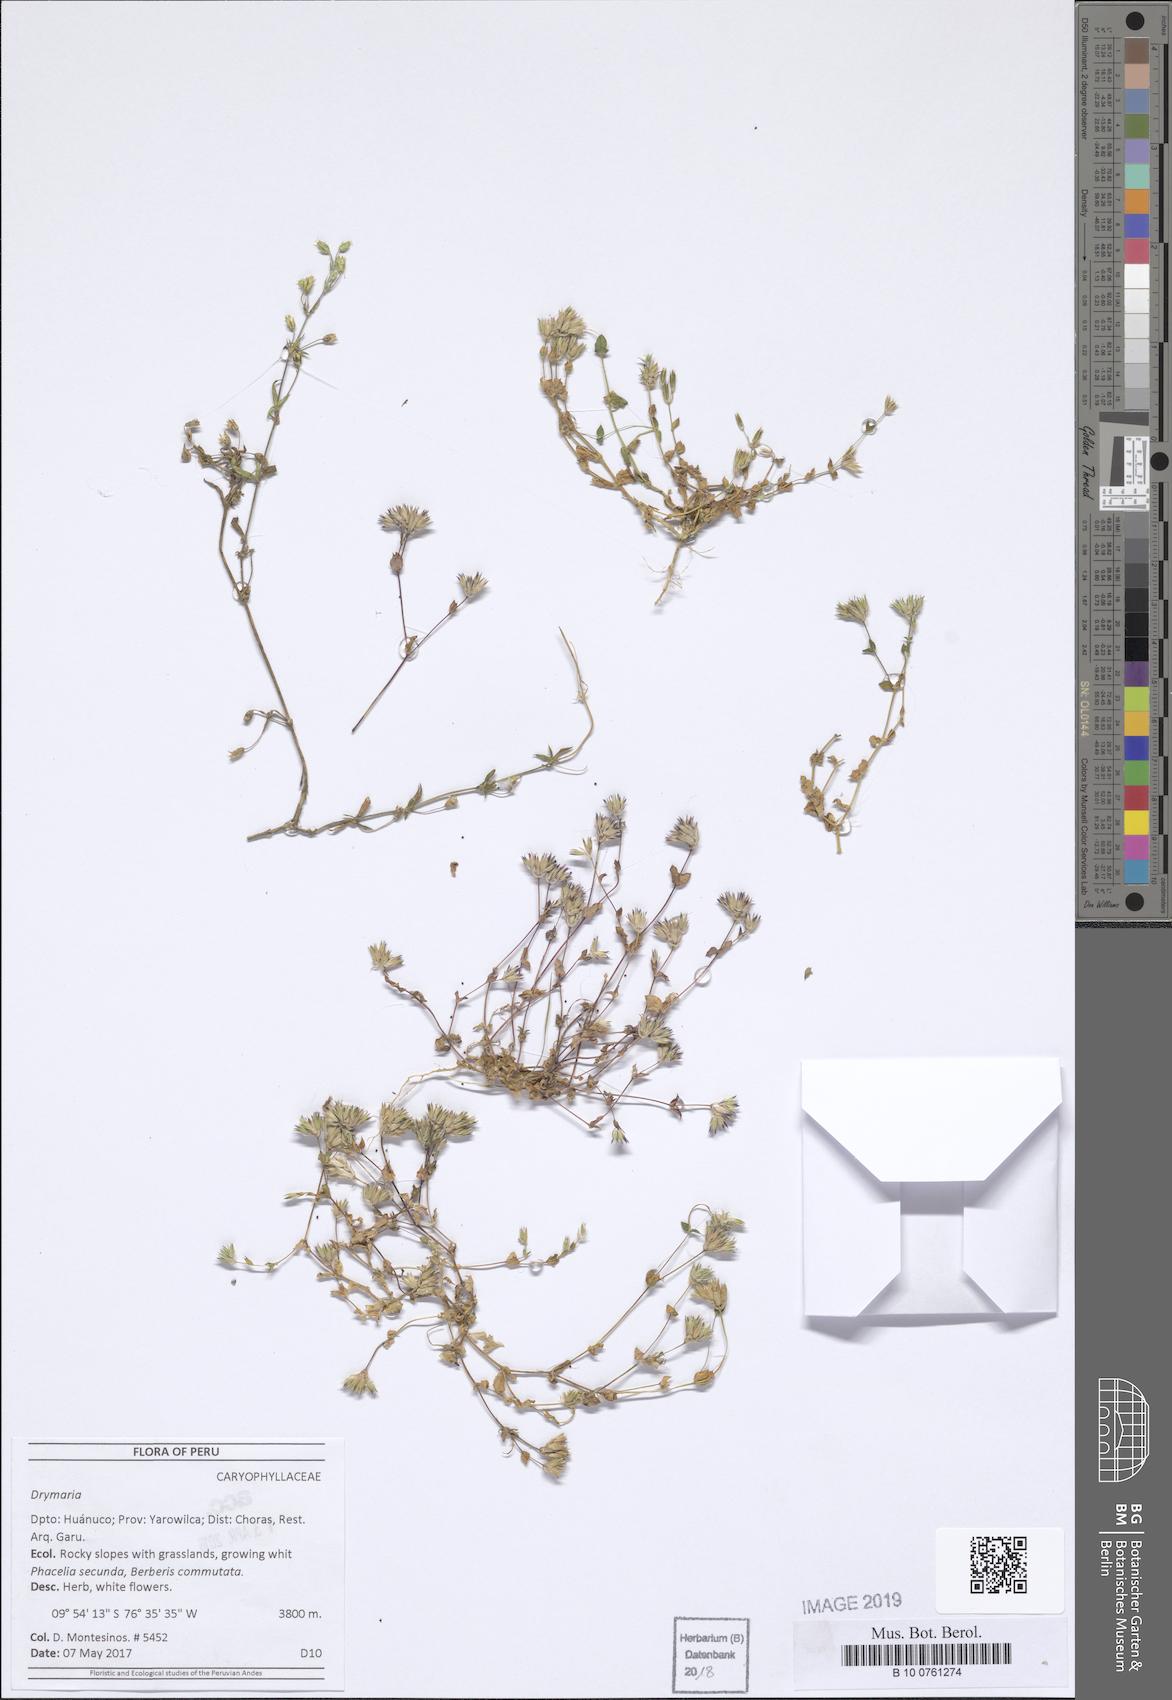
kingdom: Plantae
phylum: Tracheophyta
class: Magnoliopsida
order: Caryophyllales
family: Caryophyllaceae
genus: Drymaria
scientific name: Drymaria
